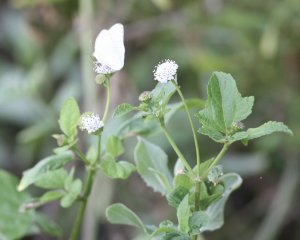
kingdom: Animalia
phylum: Arthropoda
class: Insecta
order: Lepidoptera
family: Pieridae
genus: Ascia
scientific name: Ascia monuste
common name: Great Southern White
